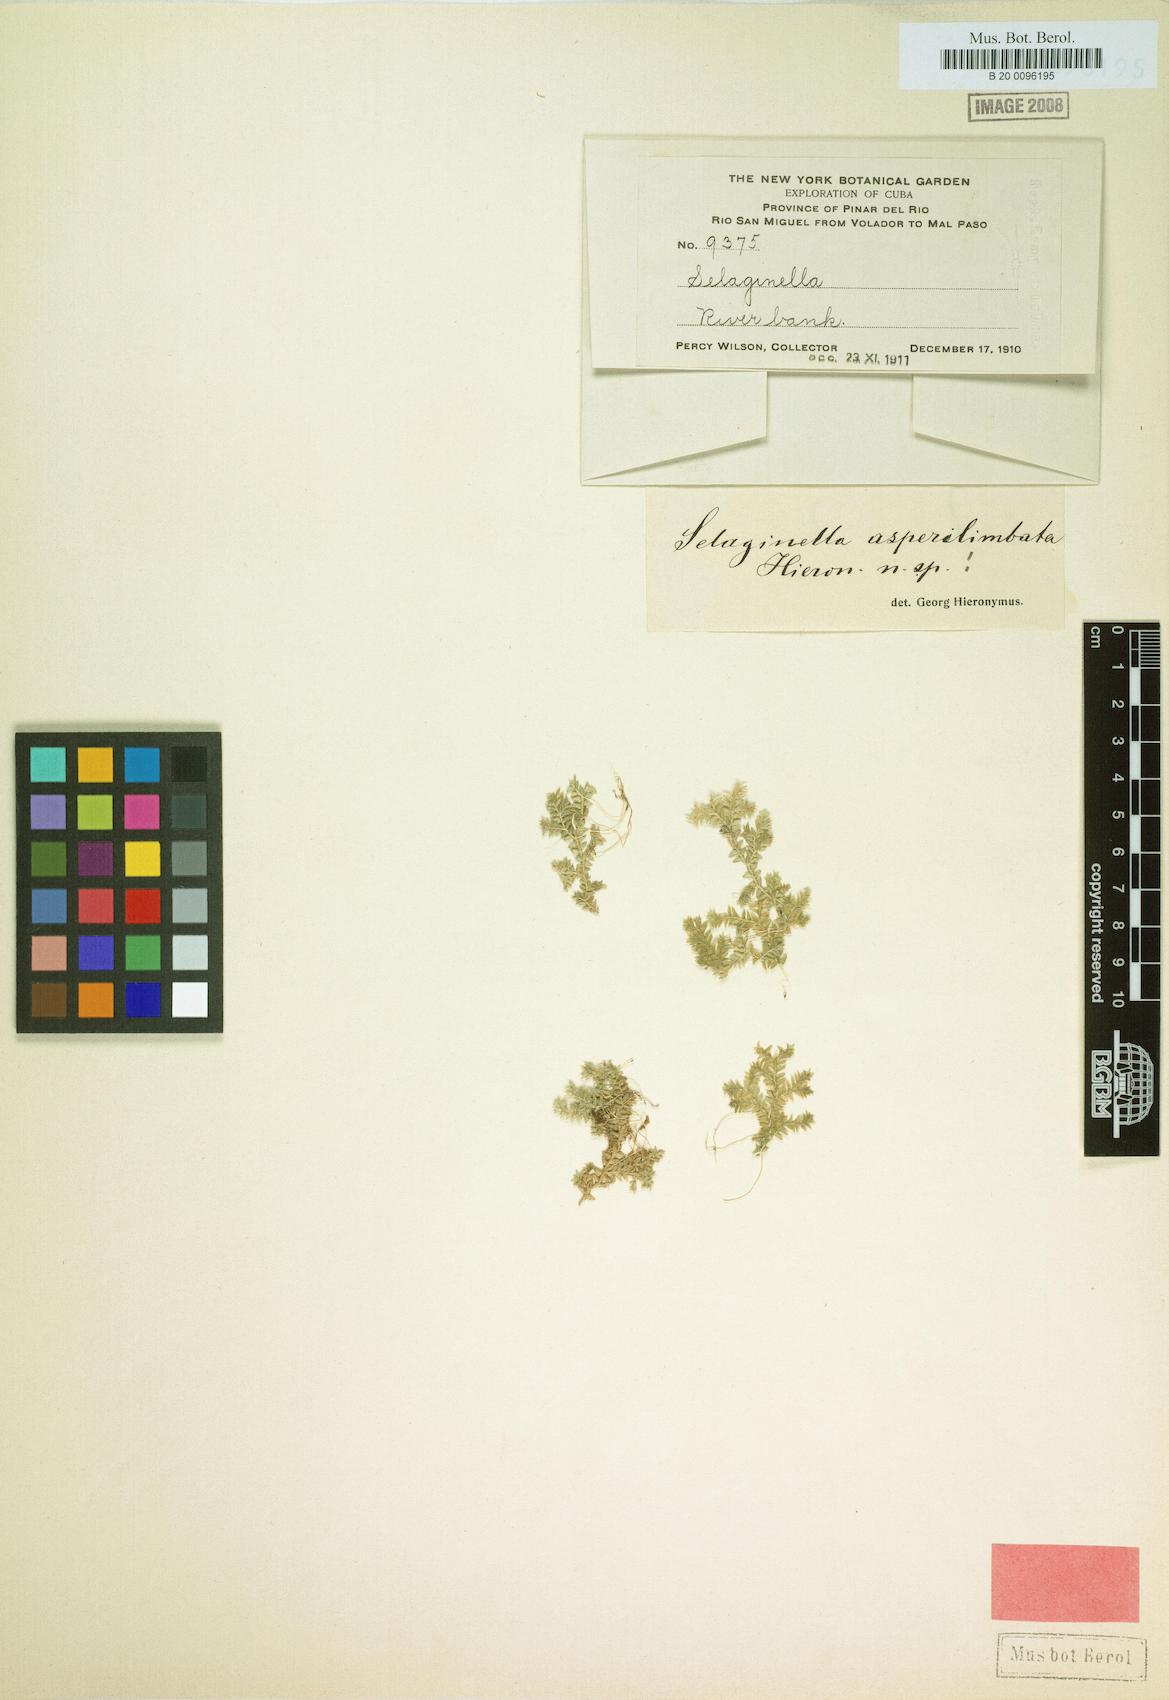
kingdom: Plantae
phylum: Tracheophyta
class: Lycopodiopsida
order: Selaginellales
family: Selaginellaceae
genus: Selaginella
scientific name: Selaginella urquiolae
